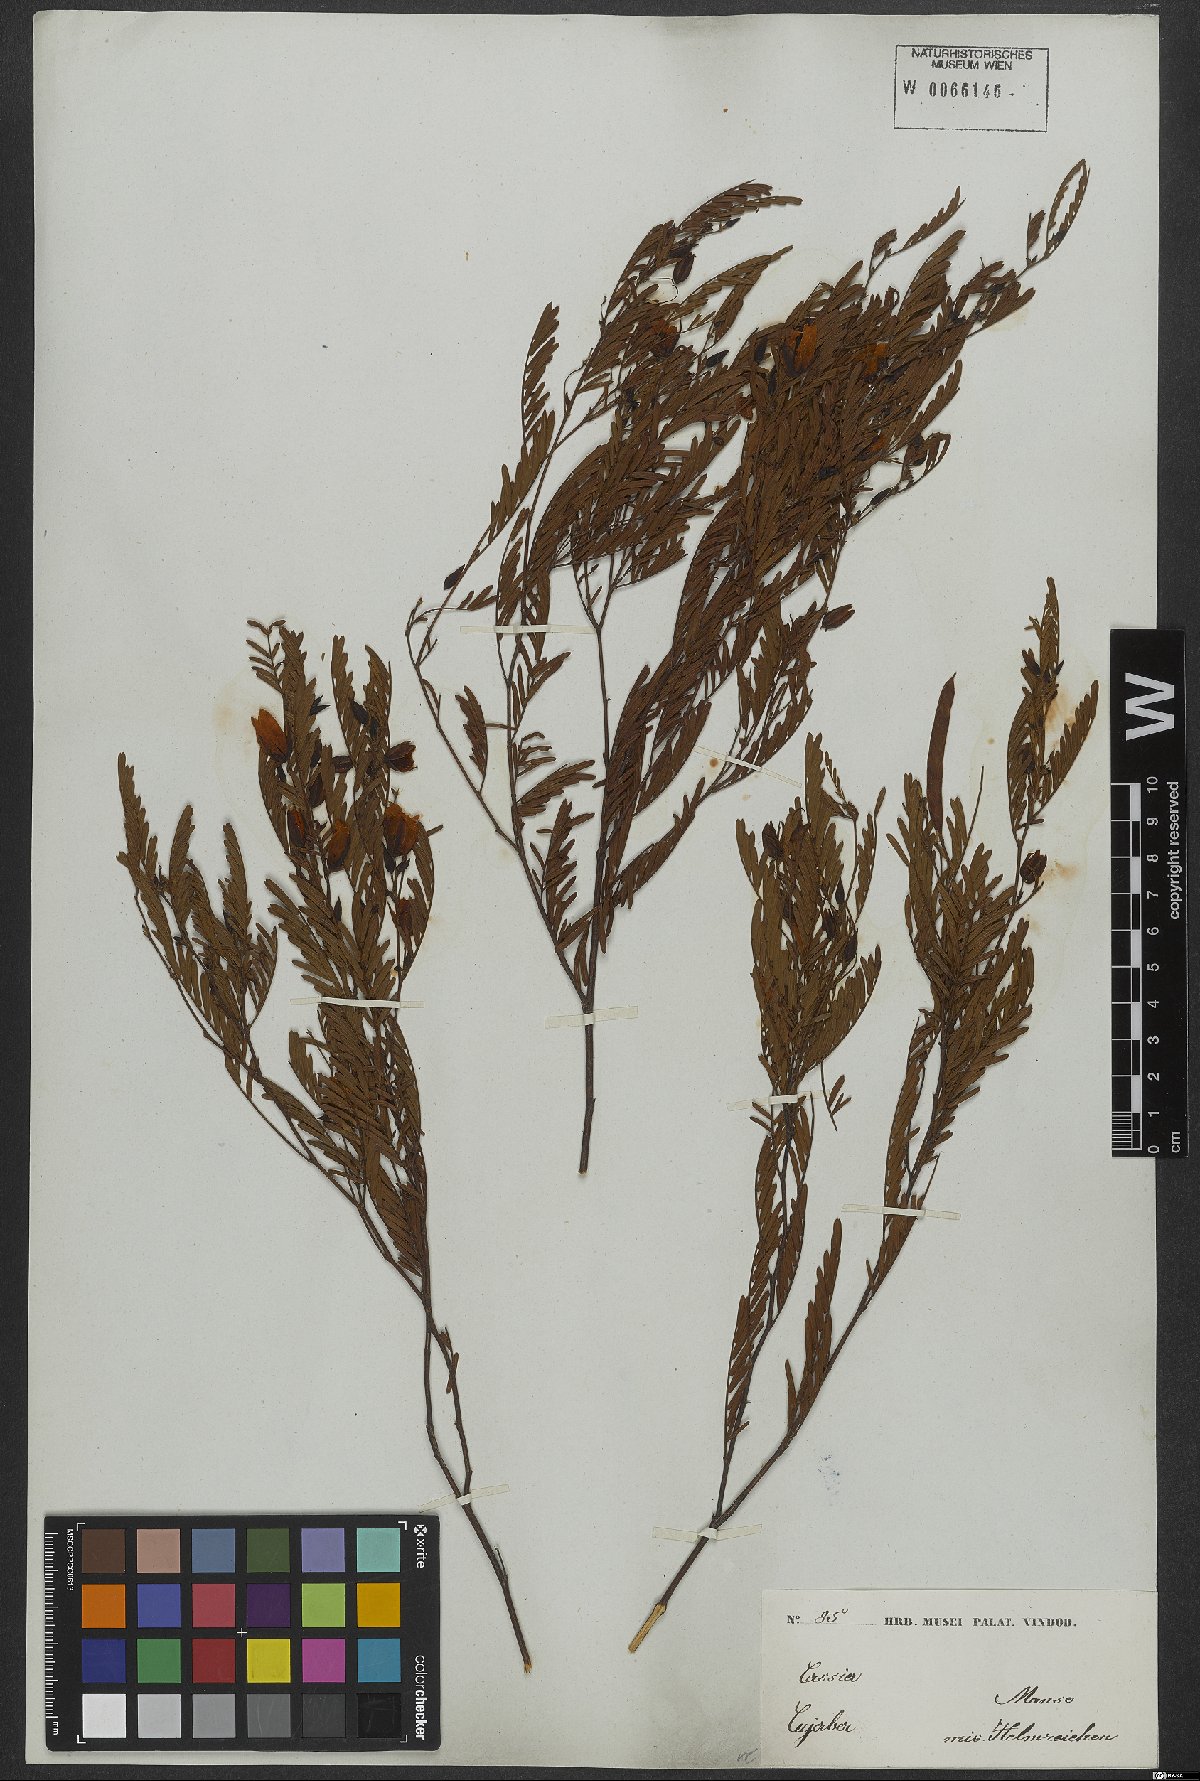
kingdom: Plantae
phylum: Tracheophyta
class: Magnoliopsida
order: Fabales
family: Fabaceae
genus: Chamaecrista
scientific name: Chamaecrista parvistipula
